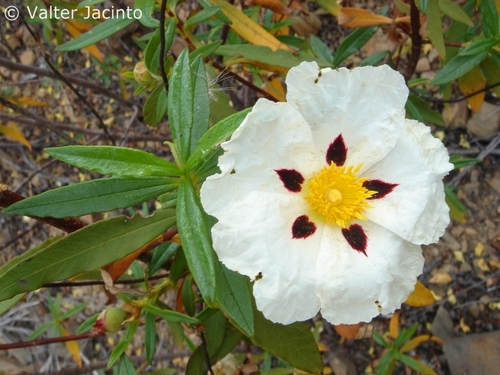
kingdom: Plantae
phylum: Tracheophyta
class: Magnoliopsida
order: Malvales
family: Cistaceae
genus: Cistus
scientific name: Cistus ladanifer
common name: Common gum cistus
